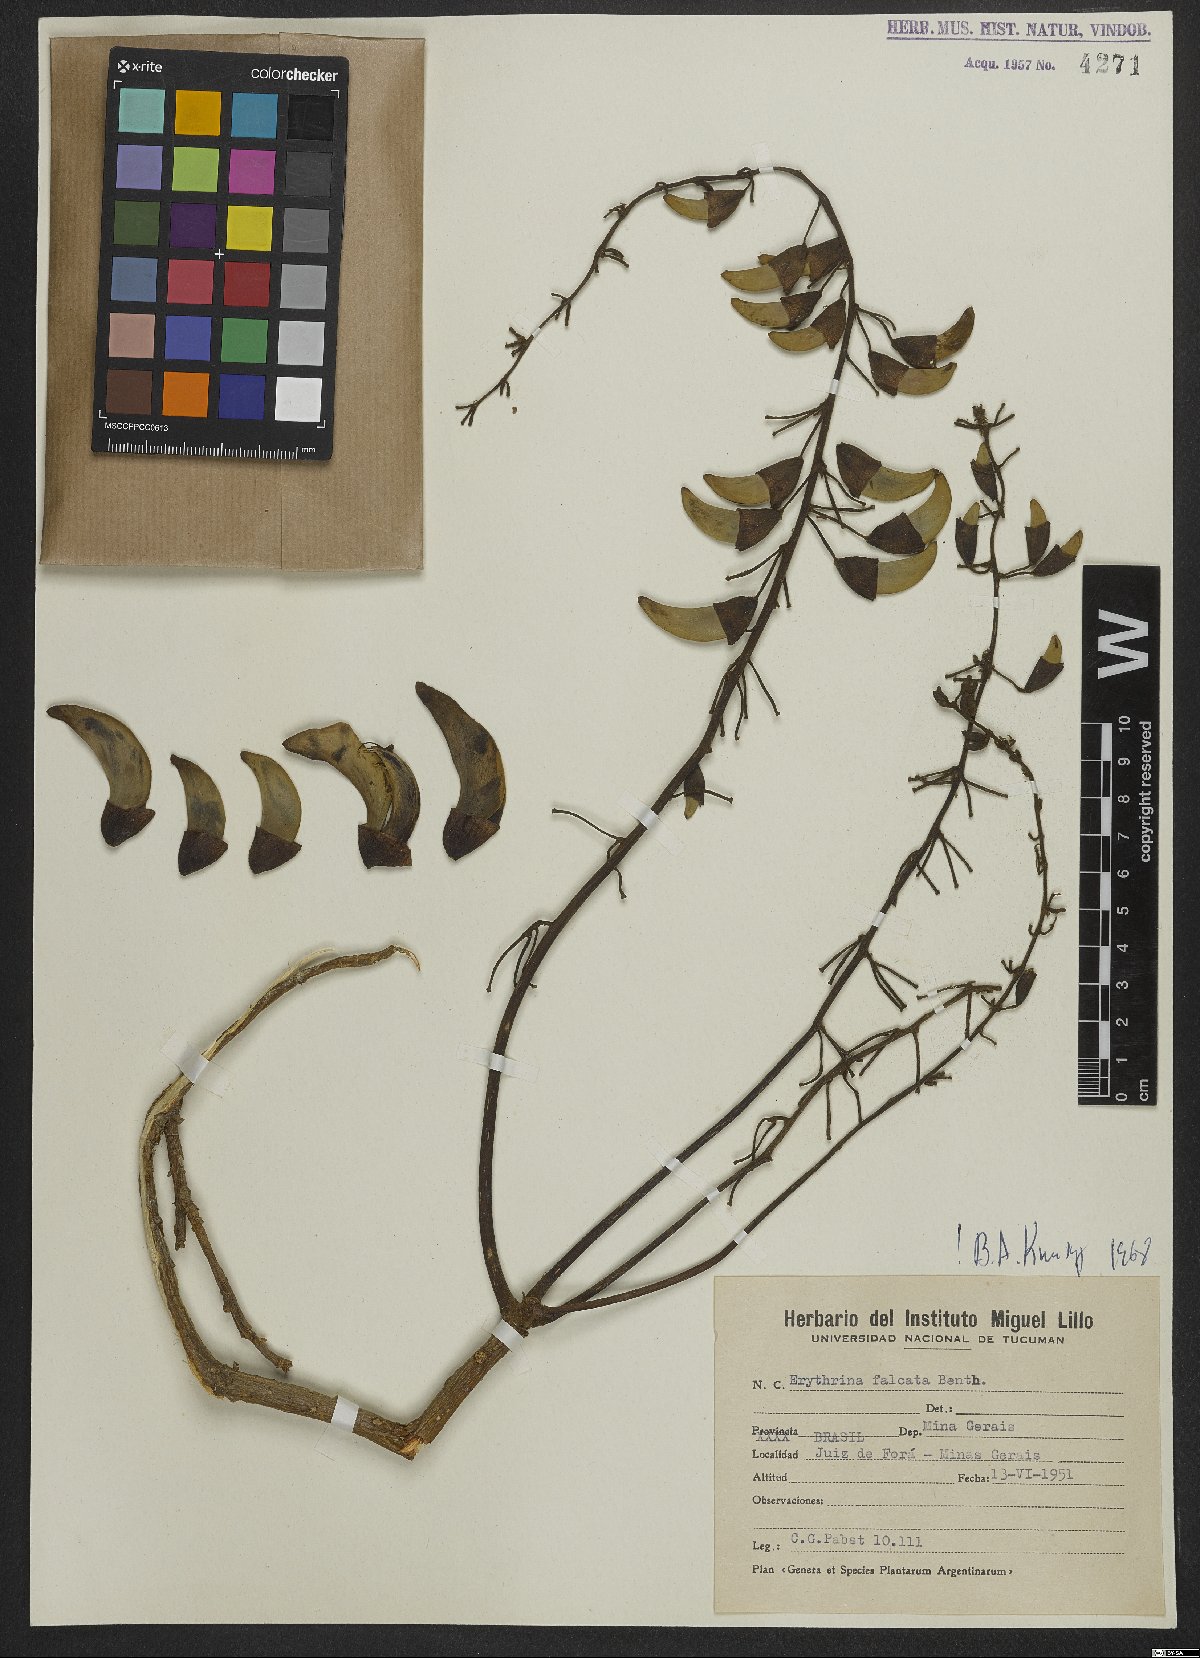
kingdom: Plantae
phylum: Tracheophyta
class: Magnoliopsida
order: Fabales
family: Fabaceae
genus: Erythrina
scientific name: Erythrina falcata
